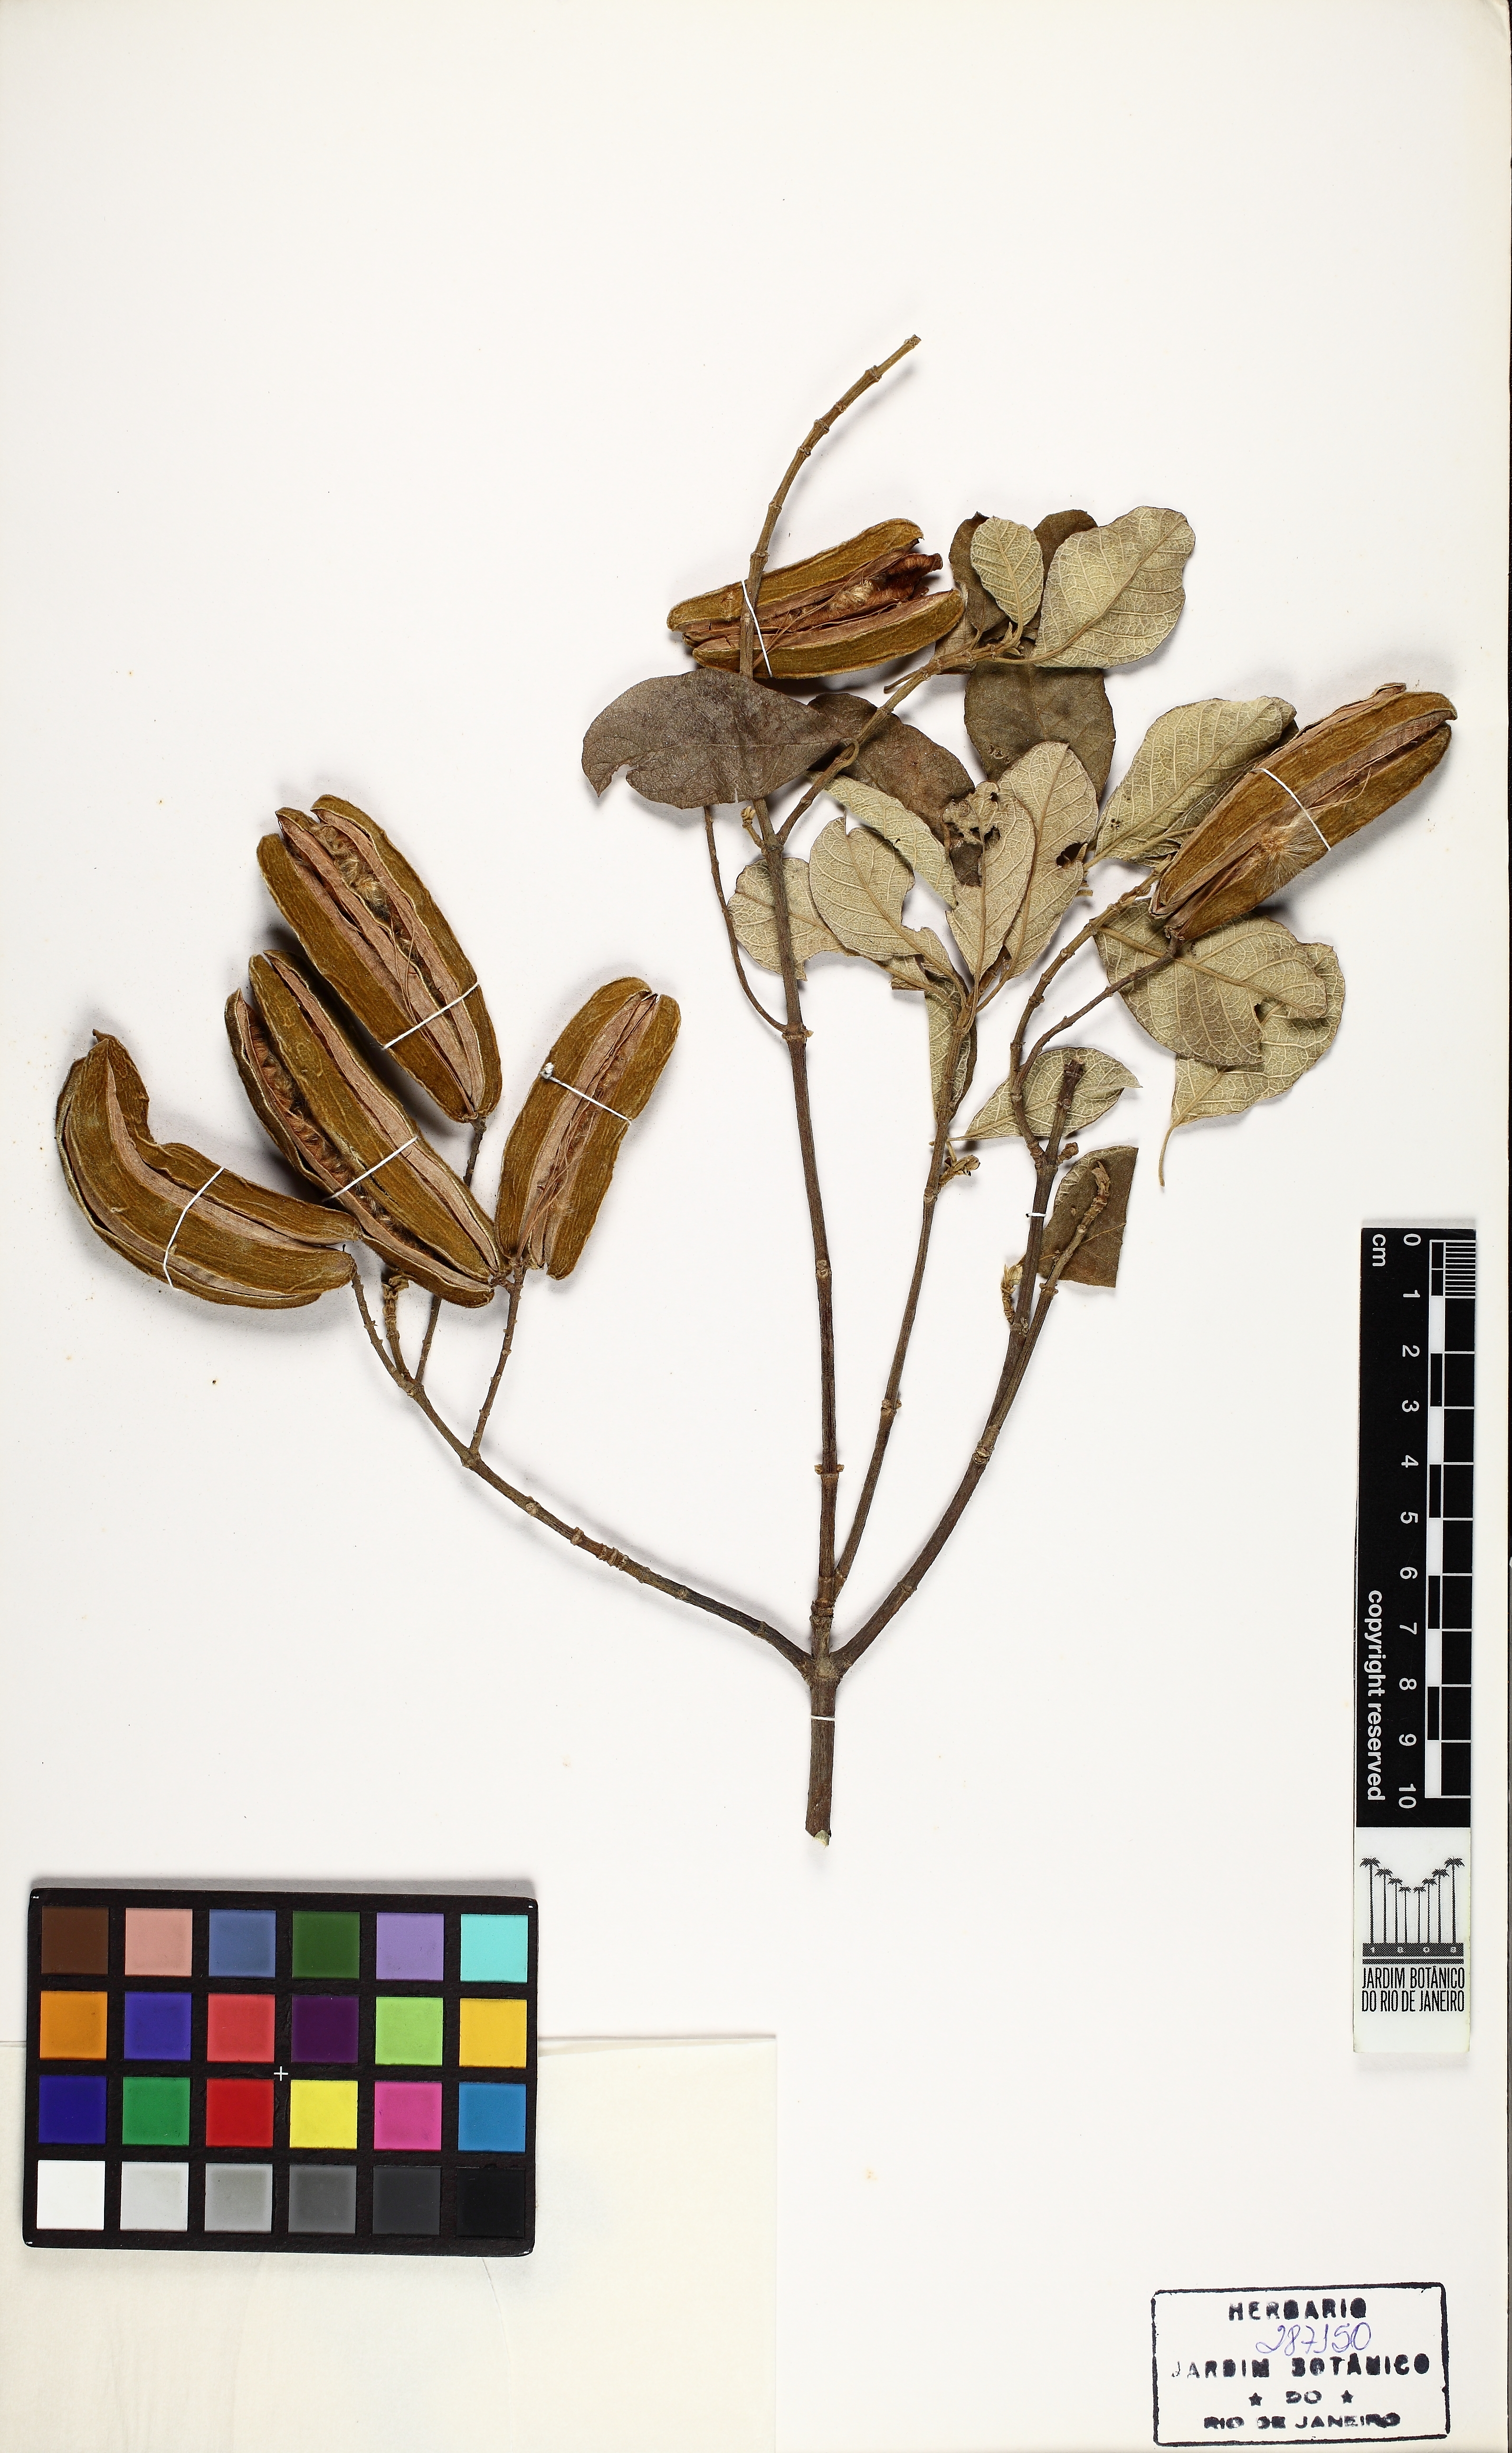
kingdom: Plantae
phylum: Tracheophyta
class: Magnoliopsida
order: Malpighiales
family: Trigoniaceae
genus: Trigonia
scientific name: Trigonia villosa
